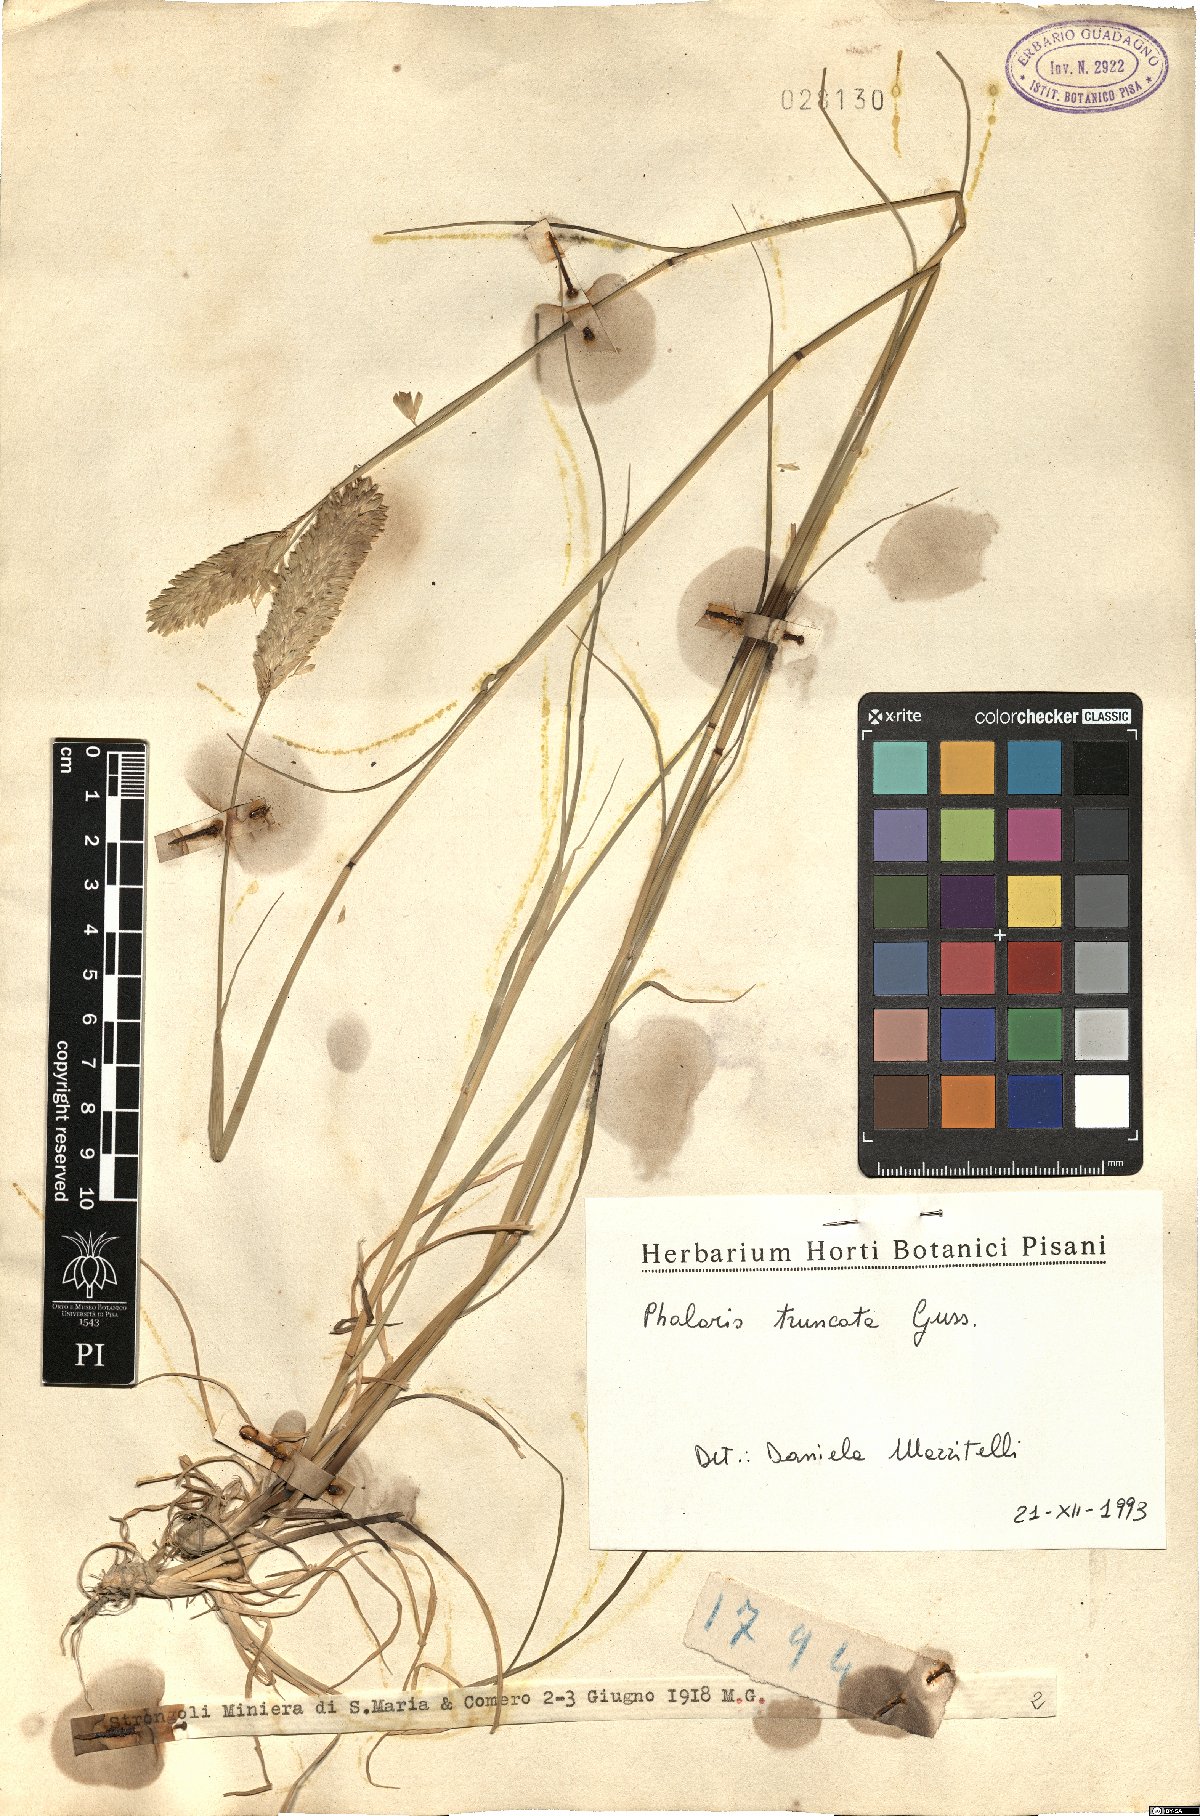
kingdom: Plantae
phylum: Tracheophyta
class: Liliopsida
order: Poales
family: Poaceae
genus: Phalaris
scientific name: Phalaris truncata
